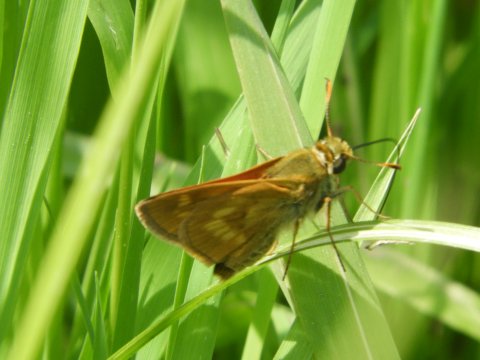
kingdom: Animalia
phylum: Arthropoda
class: Insecta
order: Lepidoptera
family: Hesperiidae
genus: Polites
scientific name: Polites
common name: Long Dash Skipper
